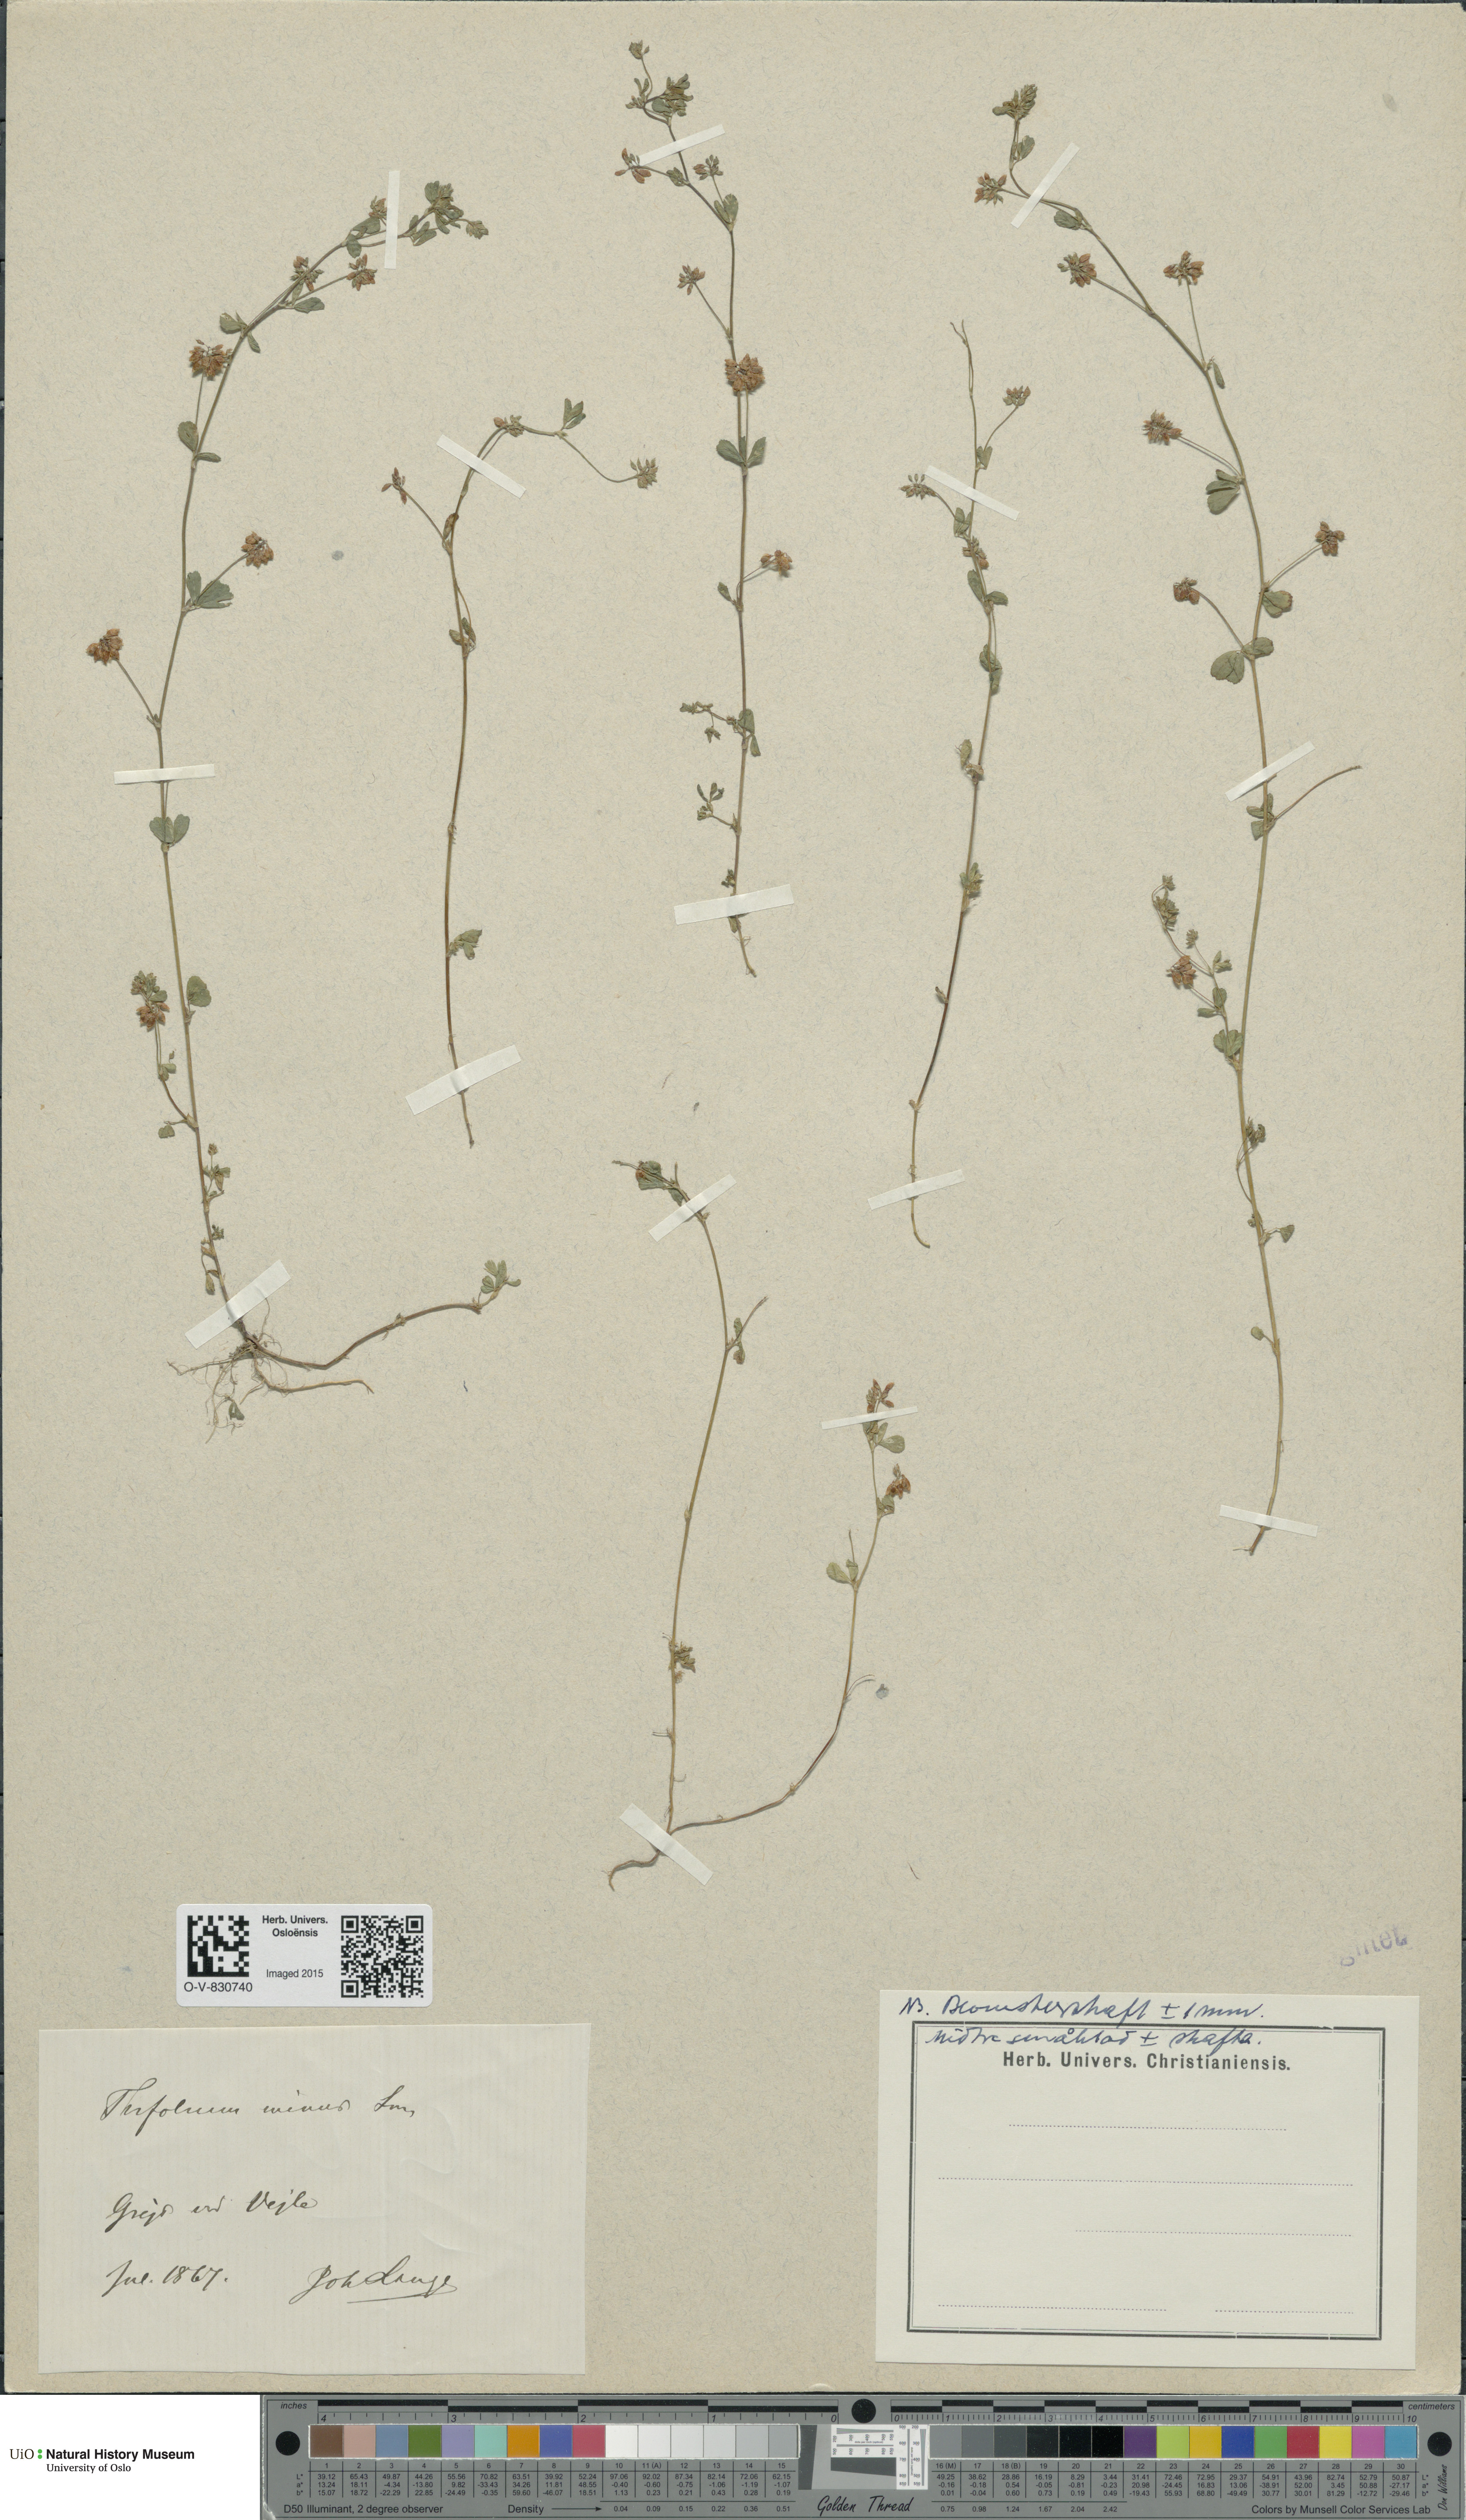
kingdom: Plantae
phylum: Tracheophyta
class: Magnoliopsida
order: Fabales
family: Fabaceae
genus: Trifolium
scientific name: Trifolium dubium
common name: Suckling clover
